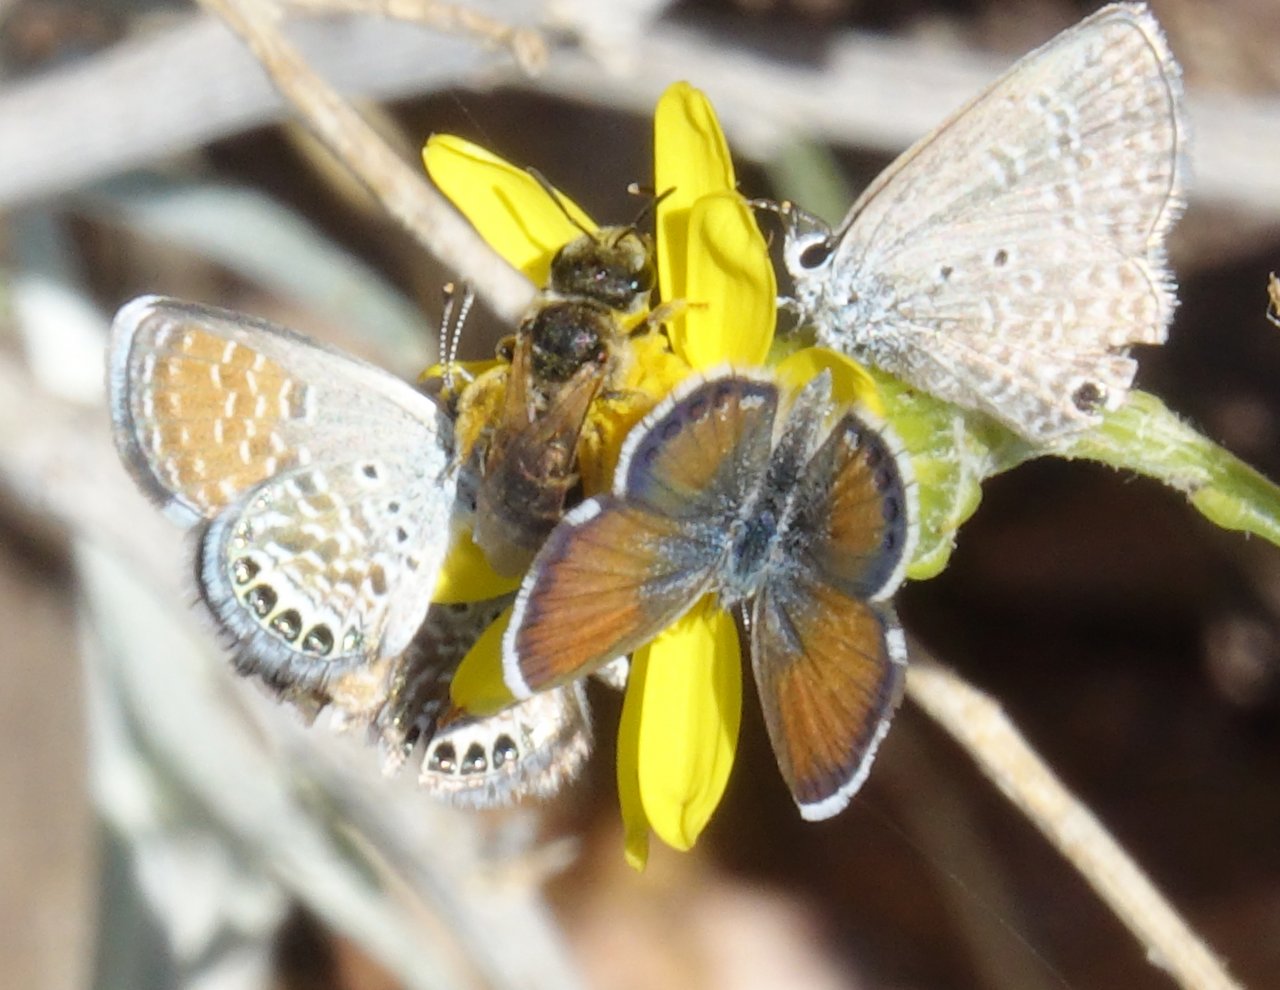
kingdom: Animalia
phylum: Arthropoda
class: Insecta
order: Lepidoptera
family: Lycaenidae
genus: Hemiargus
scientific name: Hemiargus ceraunus
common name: Ceraunus Blue
